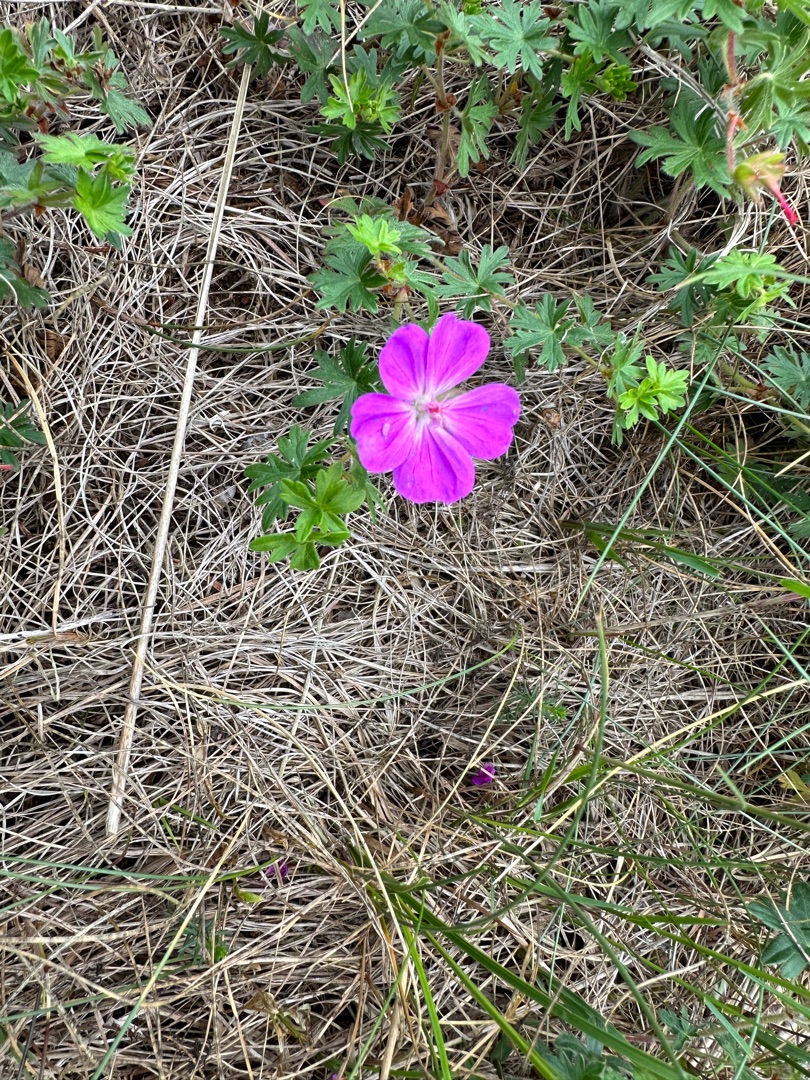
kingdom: Plantae
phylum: Tracheophyta
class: Magnoliopsida
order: Geraniales
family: Geraniaceae
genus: Geranium
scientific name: Geranium sanguineum
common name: Blodrød storkenæb
